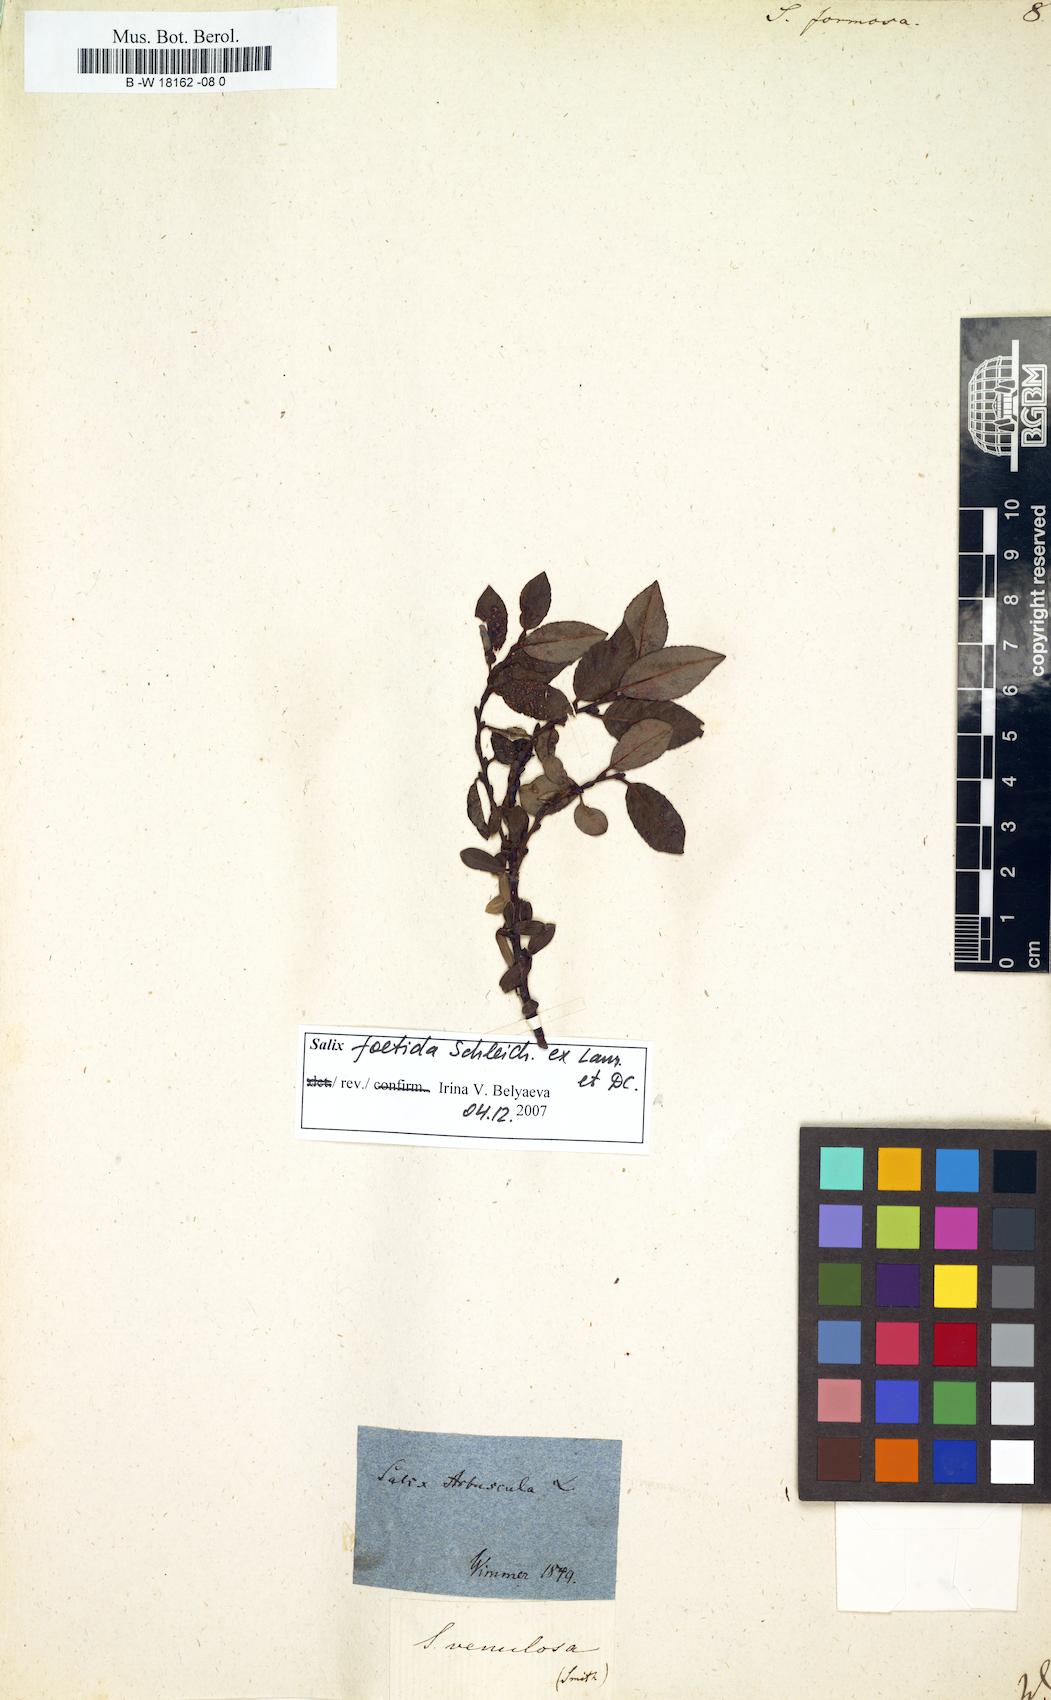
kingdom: Plantae
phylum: Tracheophyta
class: Magnoliopsida
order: Malpighiales
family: Salicaceae
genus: Salix
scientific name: Salix foetida
